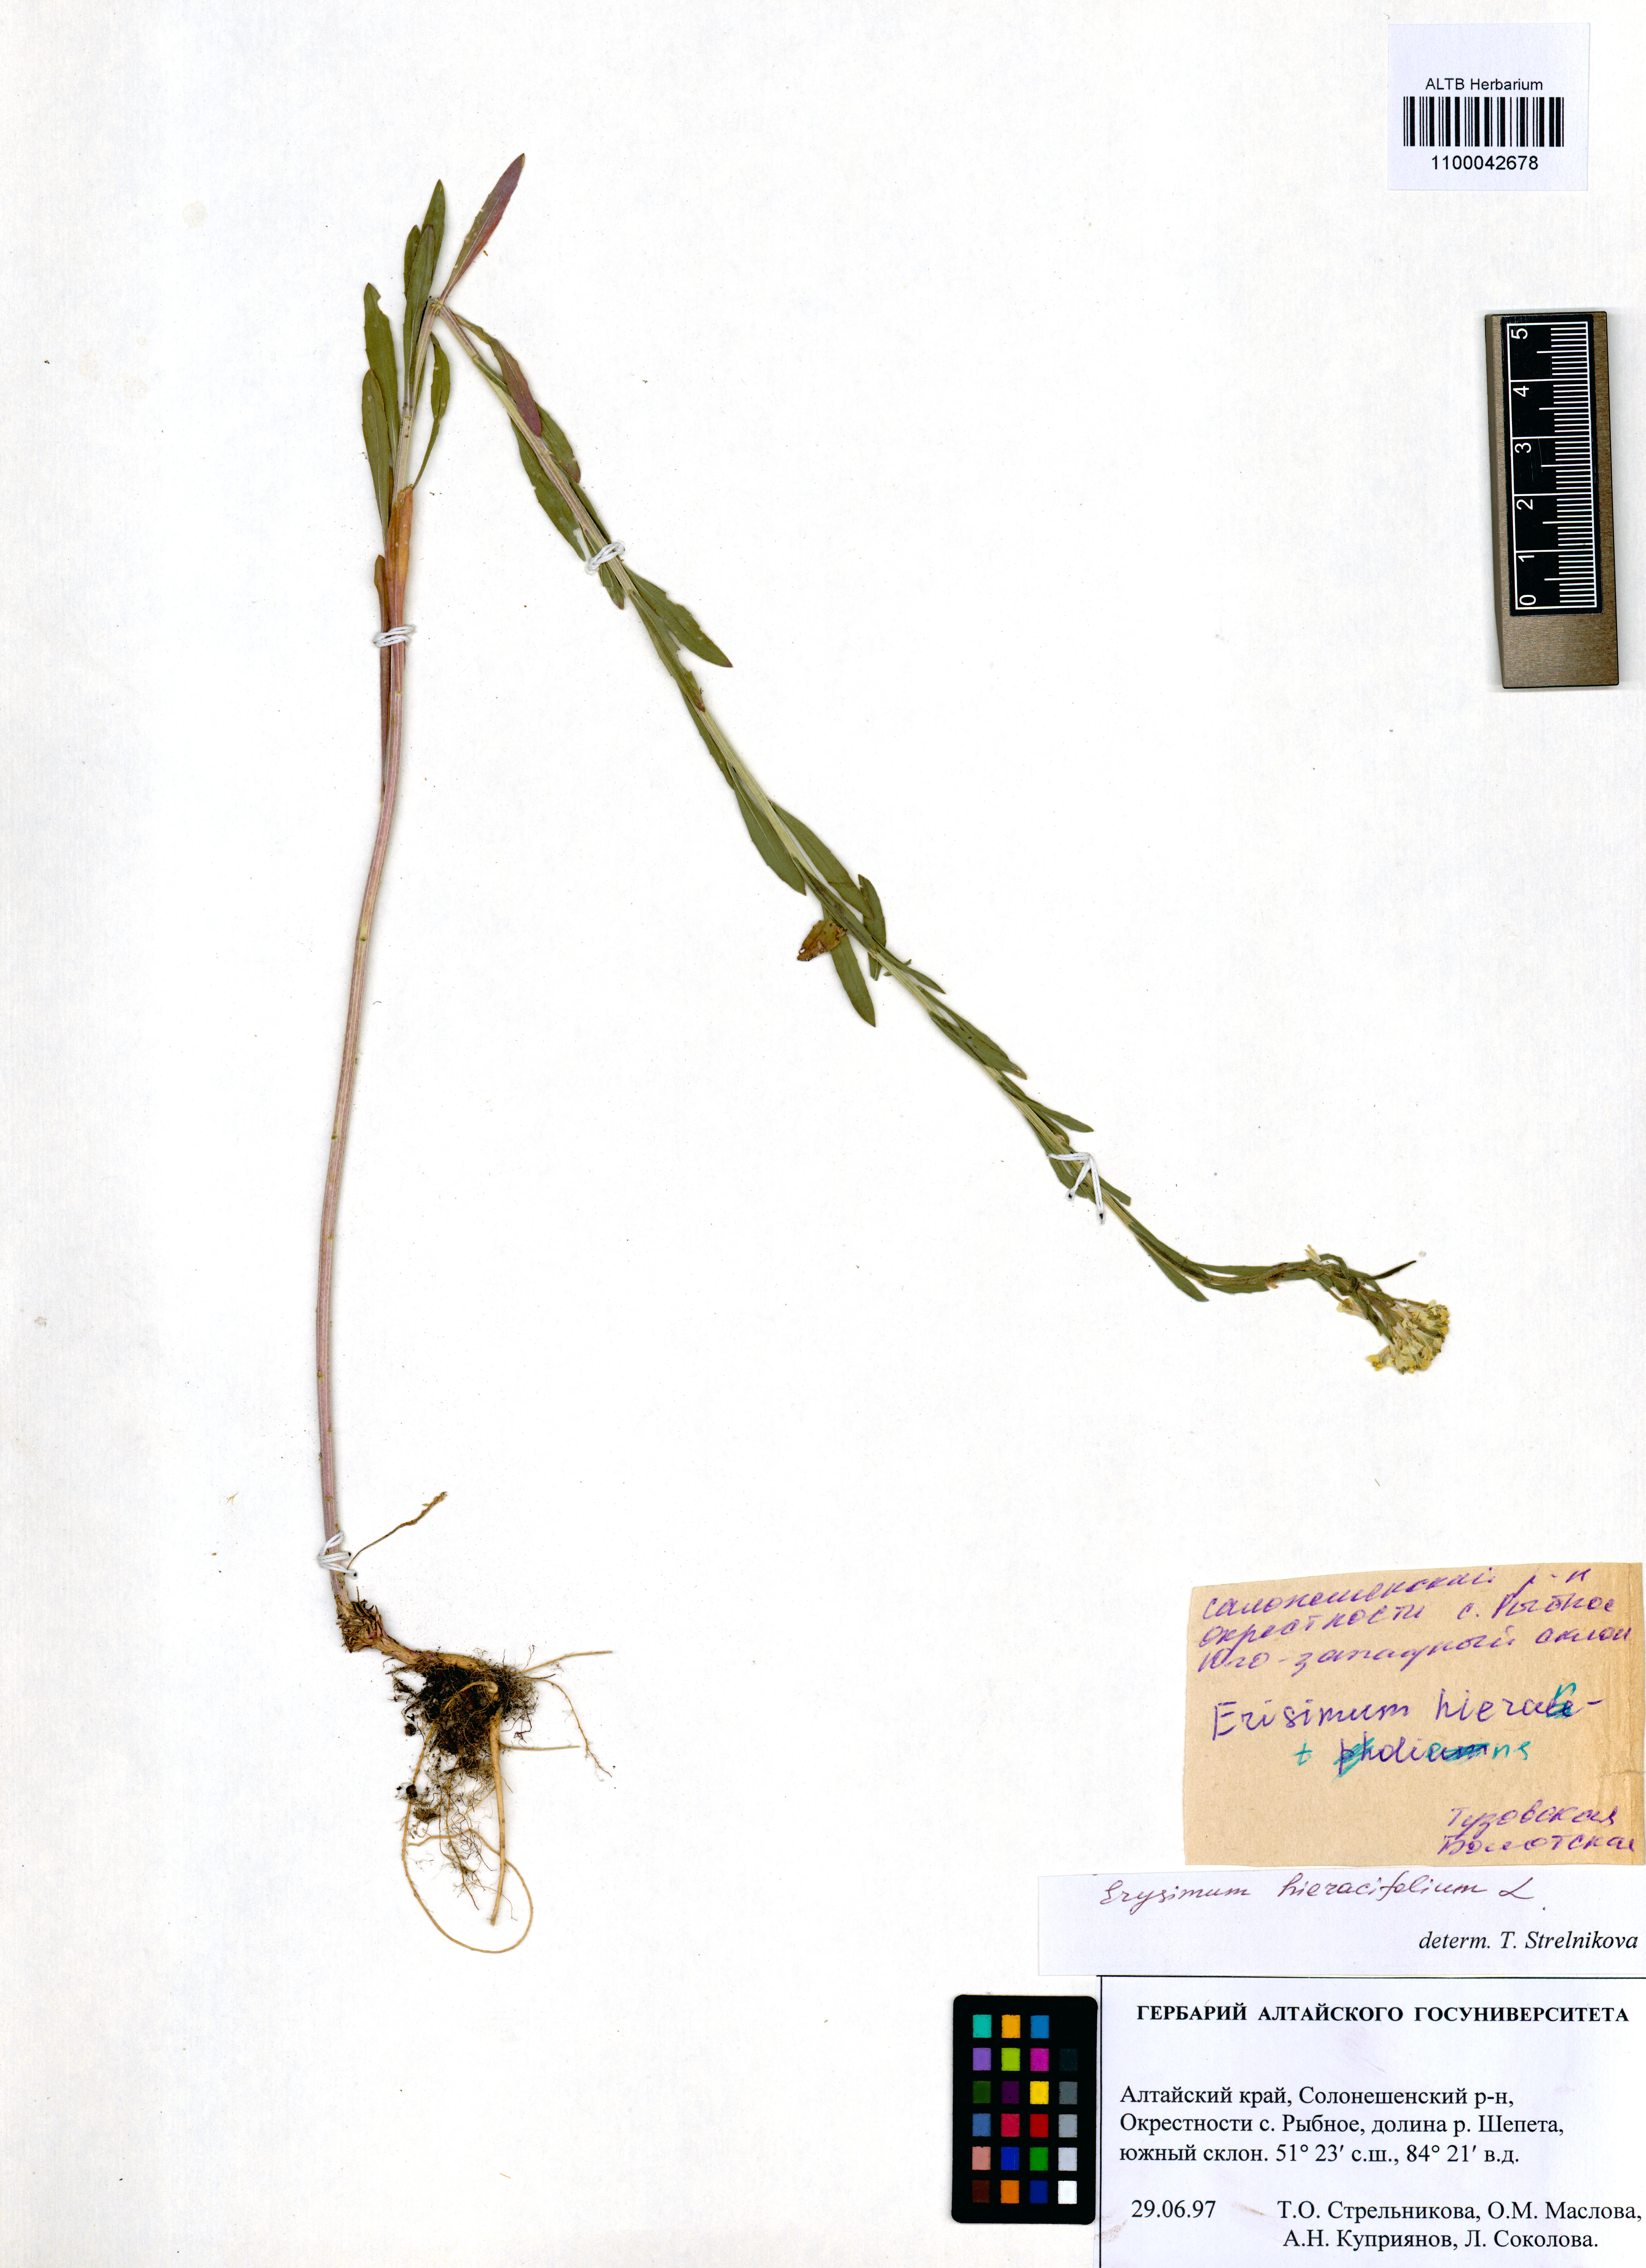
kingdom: Plantae
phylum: Tracheophyta
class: Magnoliopsida
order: Brassicales
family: Brassicaceae
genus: Erysimum
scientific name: Erysimum hieraciifolium
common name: European wallflower
